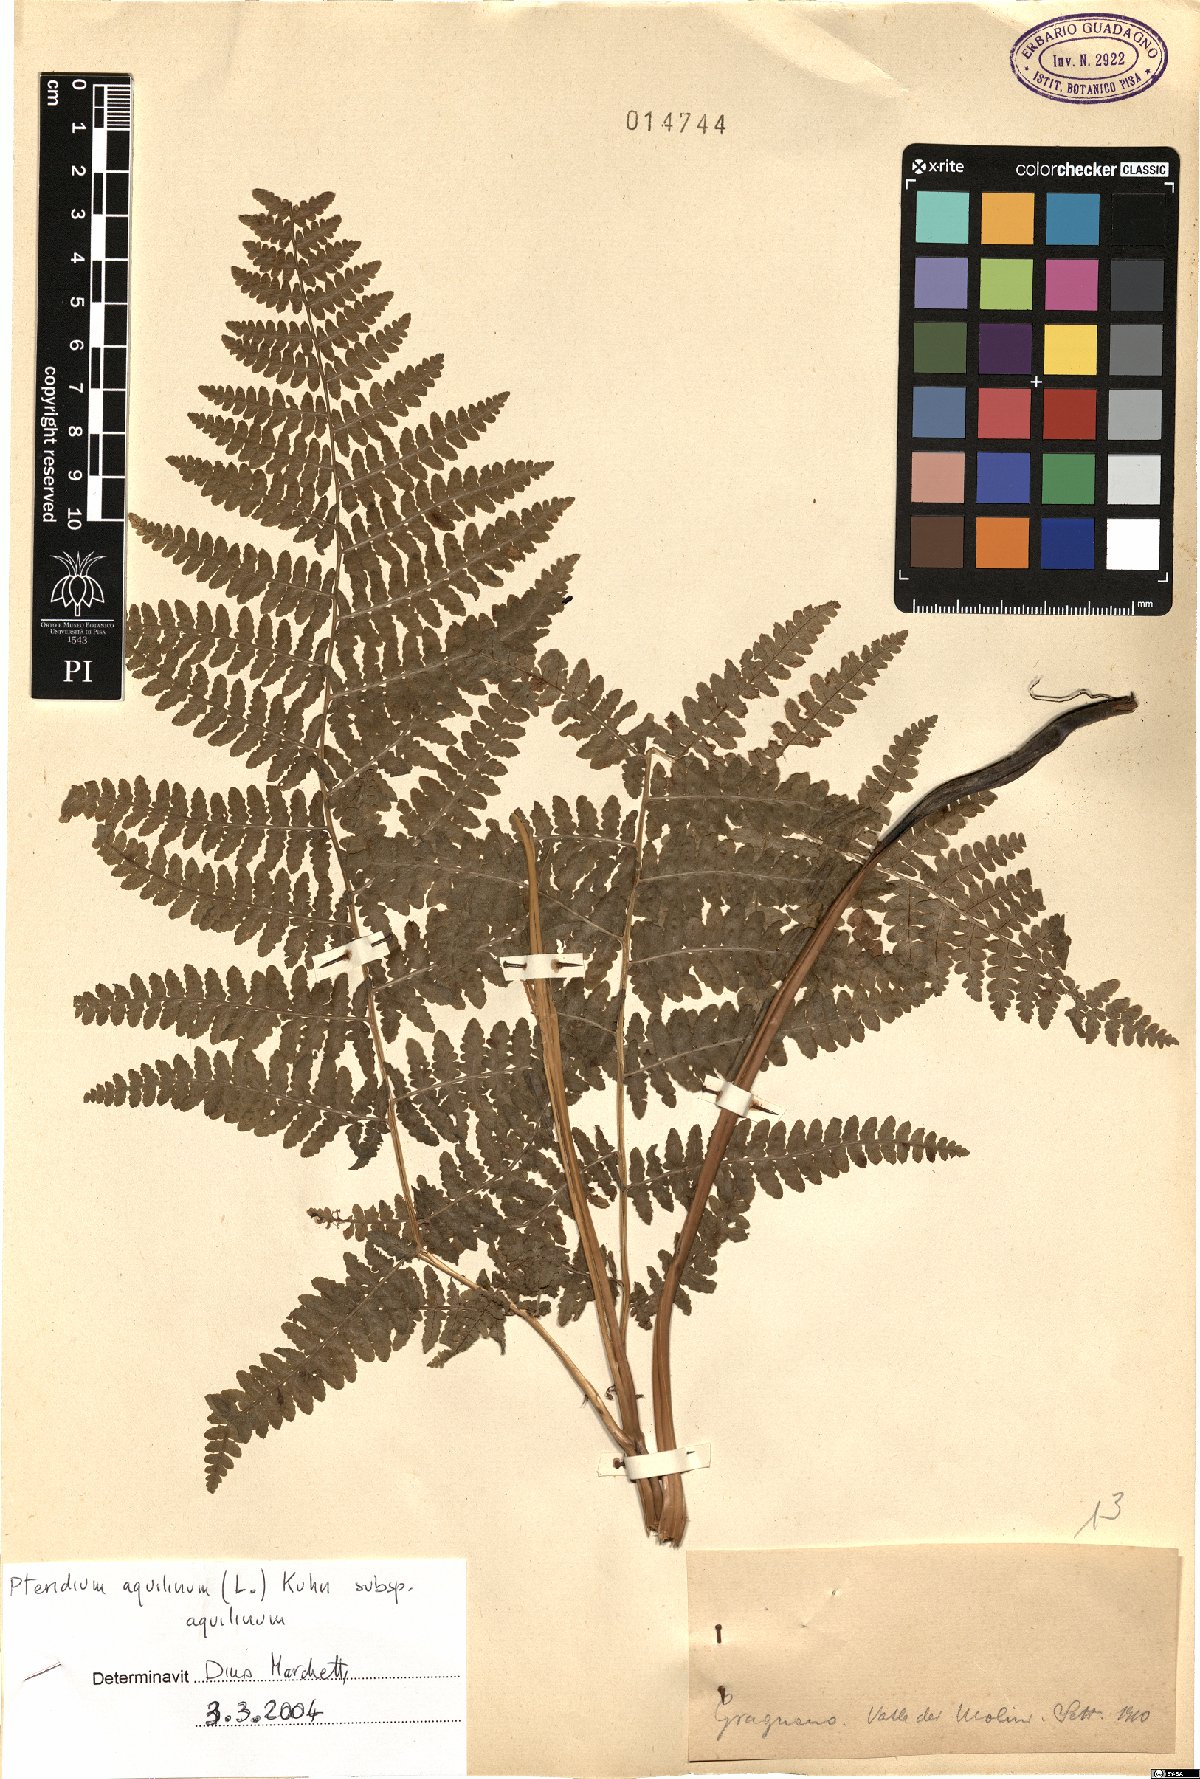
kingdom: Plantae
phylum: Tracheophyta
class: Polypodiopsida
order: Polypodiales
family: Dennstaedtiaceae
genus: Pteridium
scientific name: Pteridium aquilinum
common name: Bracken
